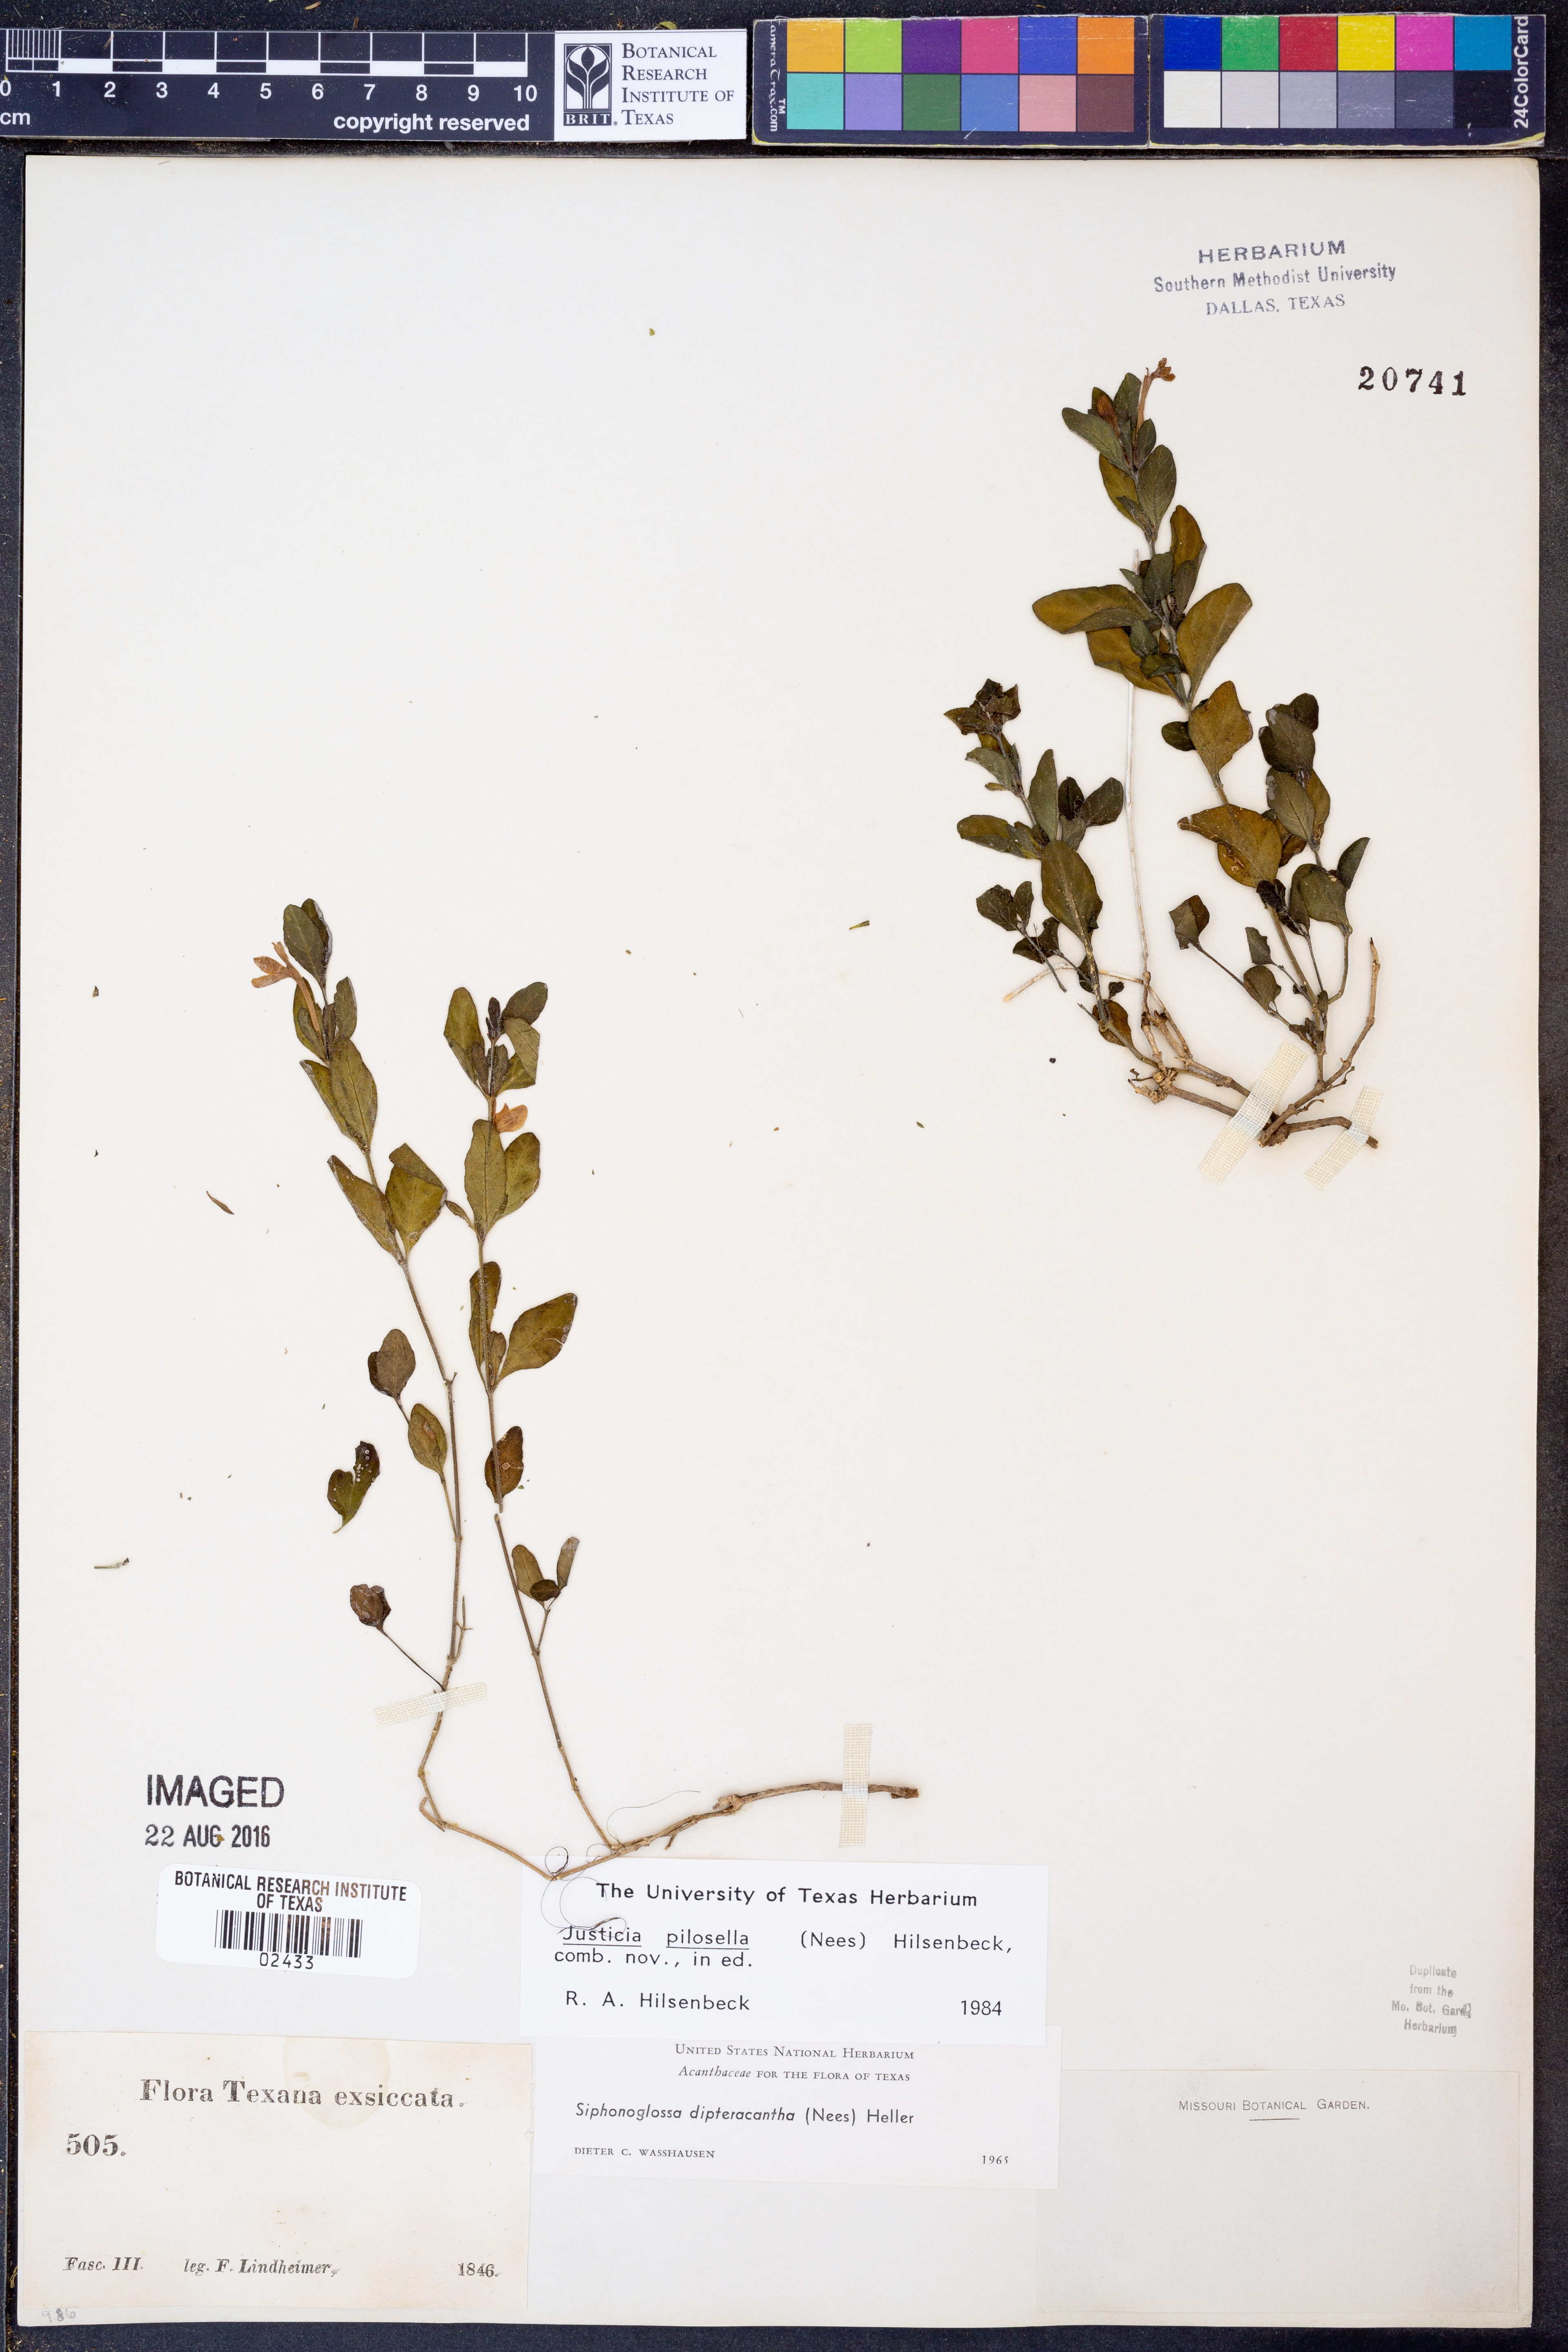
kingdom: Plantae
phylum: Tracheophyta
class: Magnoliopsida
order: Lamiales
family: Acanthaceae
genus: Justicia
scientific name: Justicia pilosella
